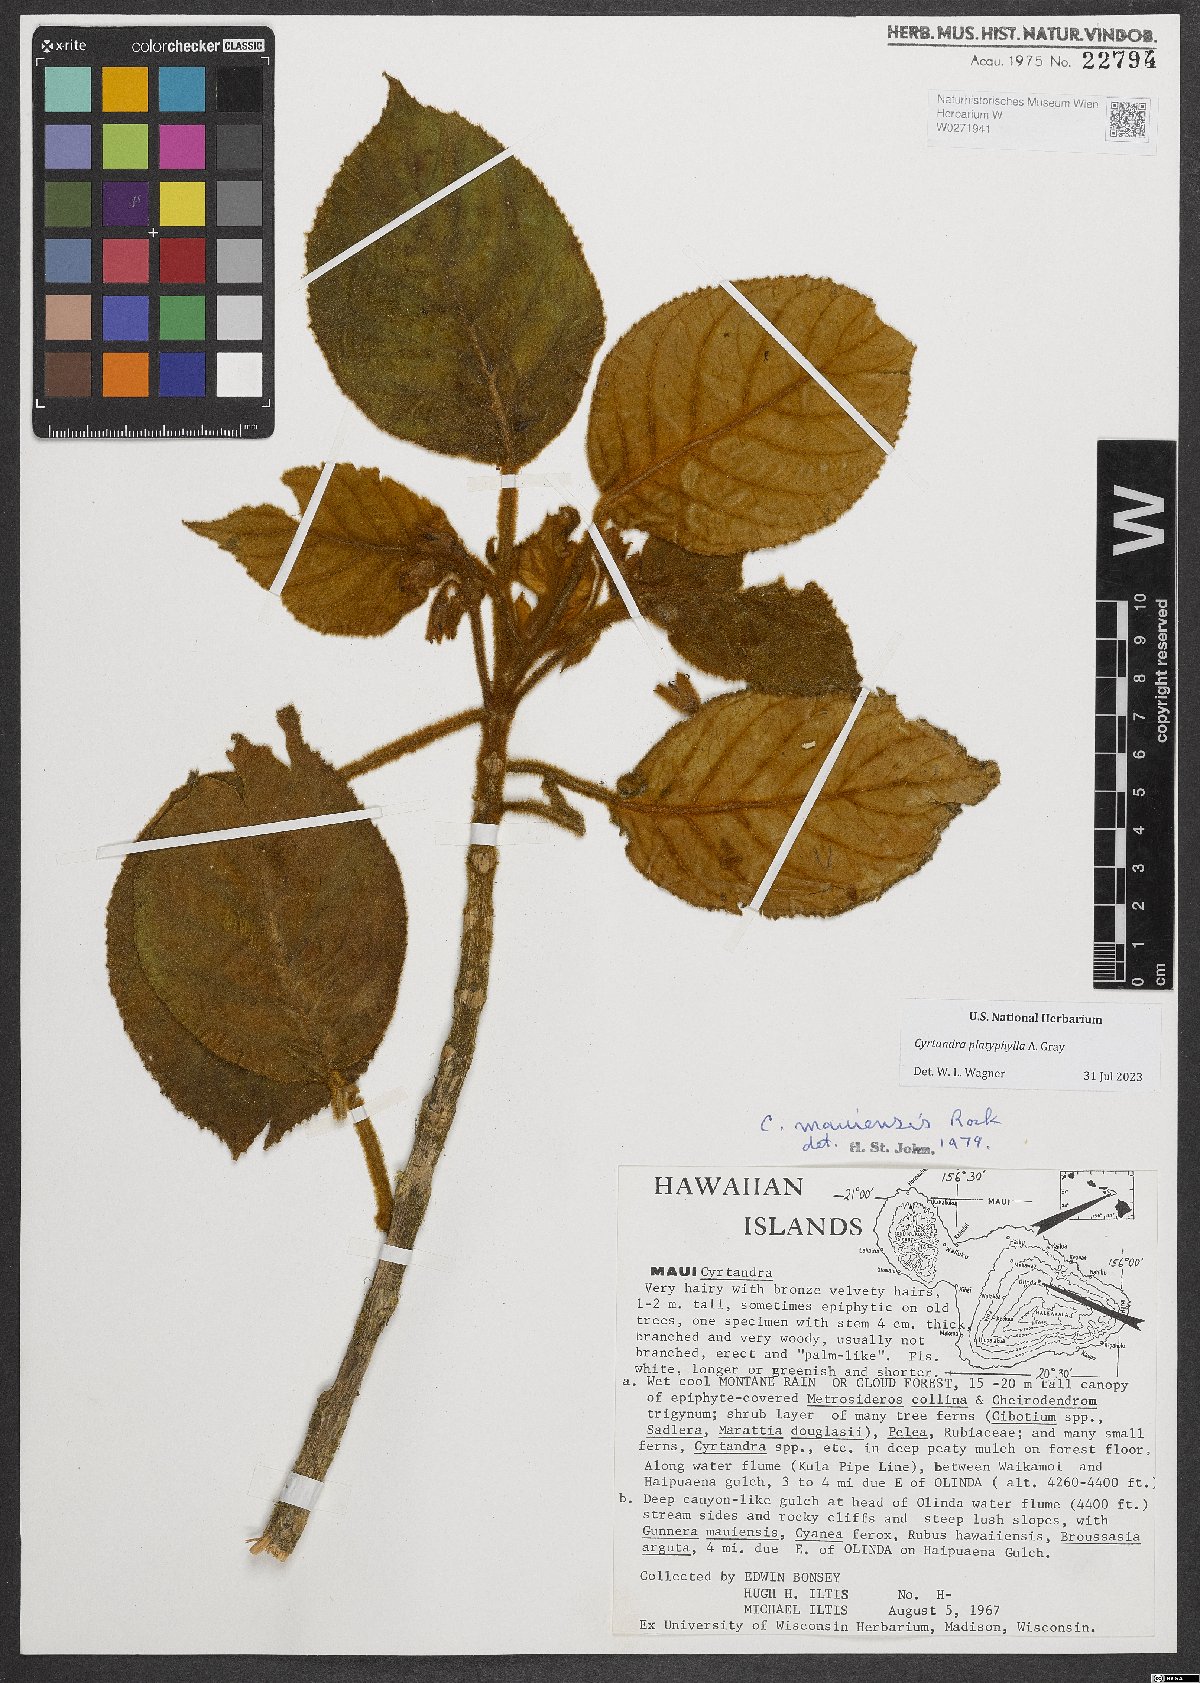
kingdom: Plantae
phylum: Tracheophyta
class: Magnoliopsida
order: Lamiales
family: Gesneriaceae
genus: Cyrtandra
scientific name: Cyrtandra platyphylla
